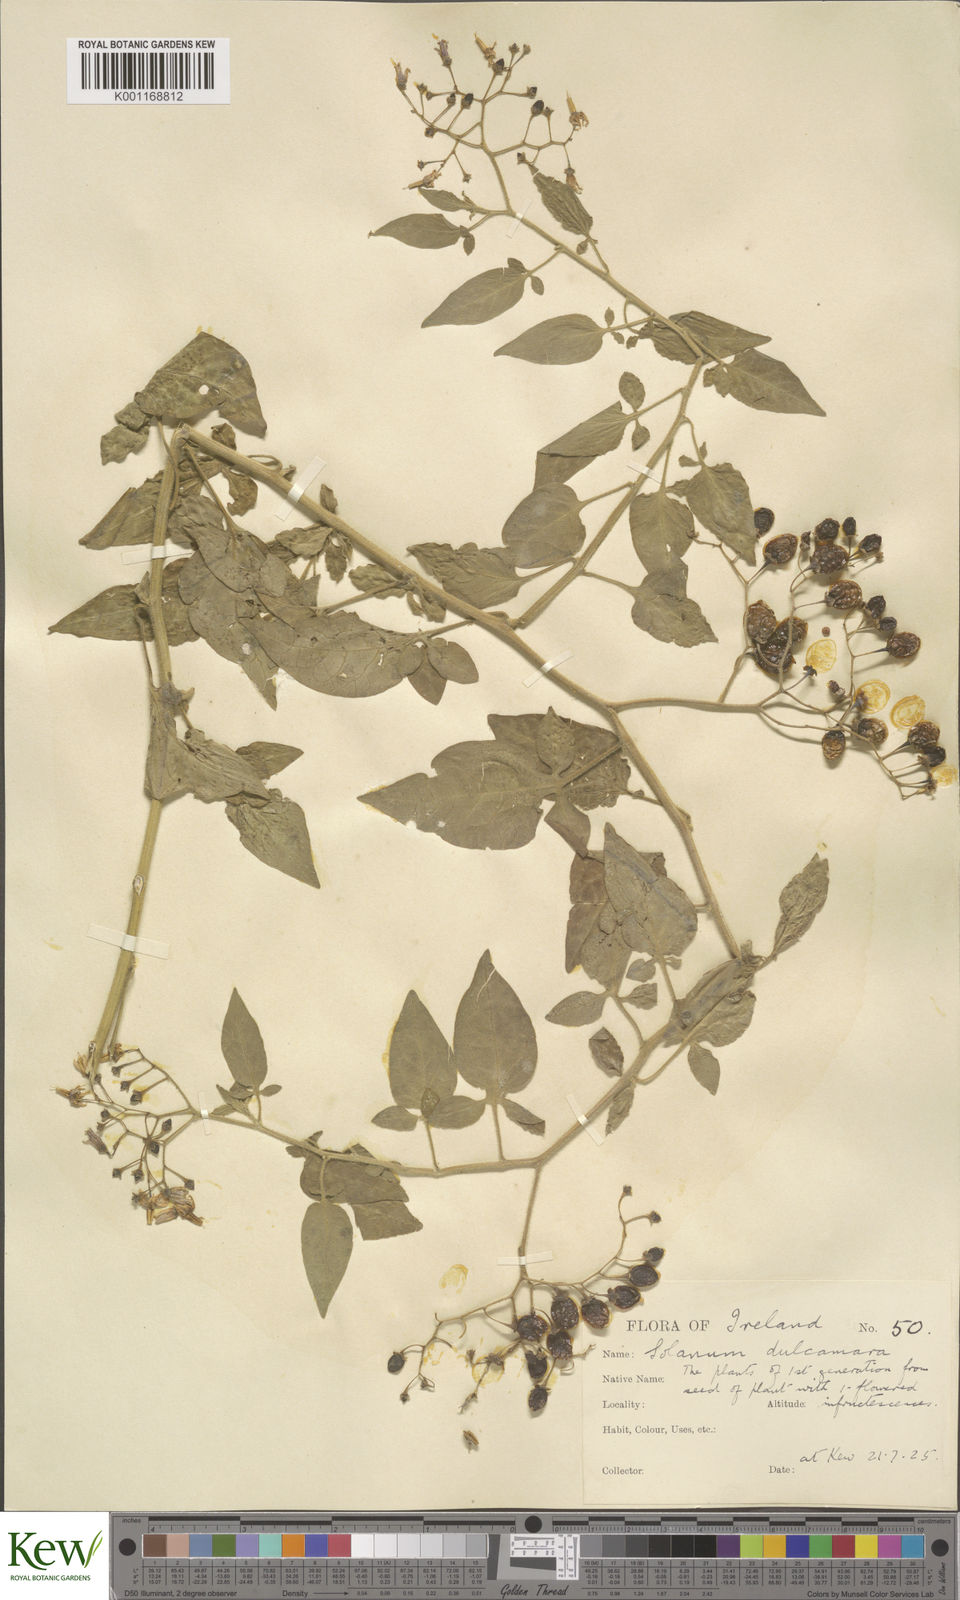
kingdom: Plantae
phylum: Tracheophyta
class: Magnoliopsida
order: Solanales
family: Solanaceae
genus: Solanum
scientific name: Solanum dulcamara
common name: Climbing nightshade
